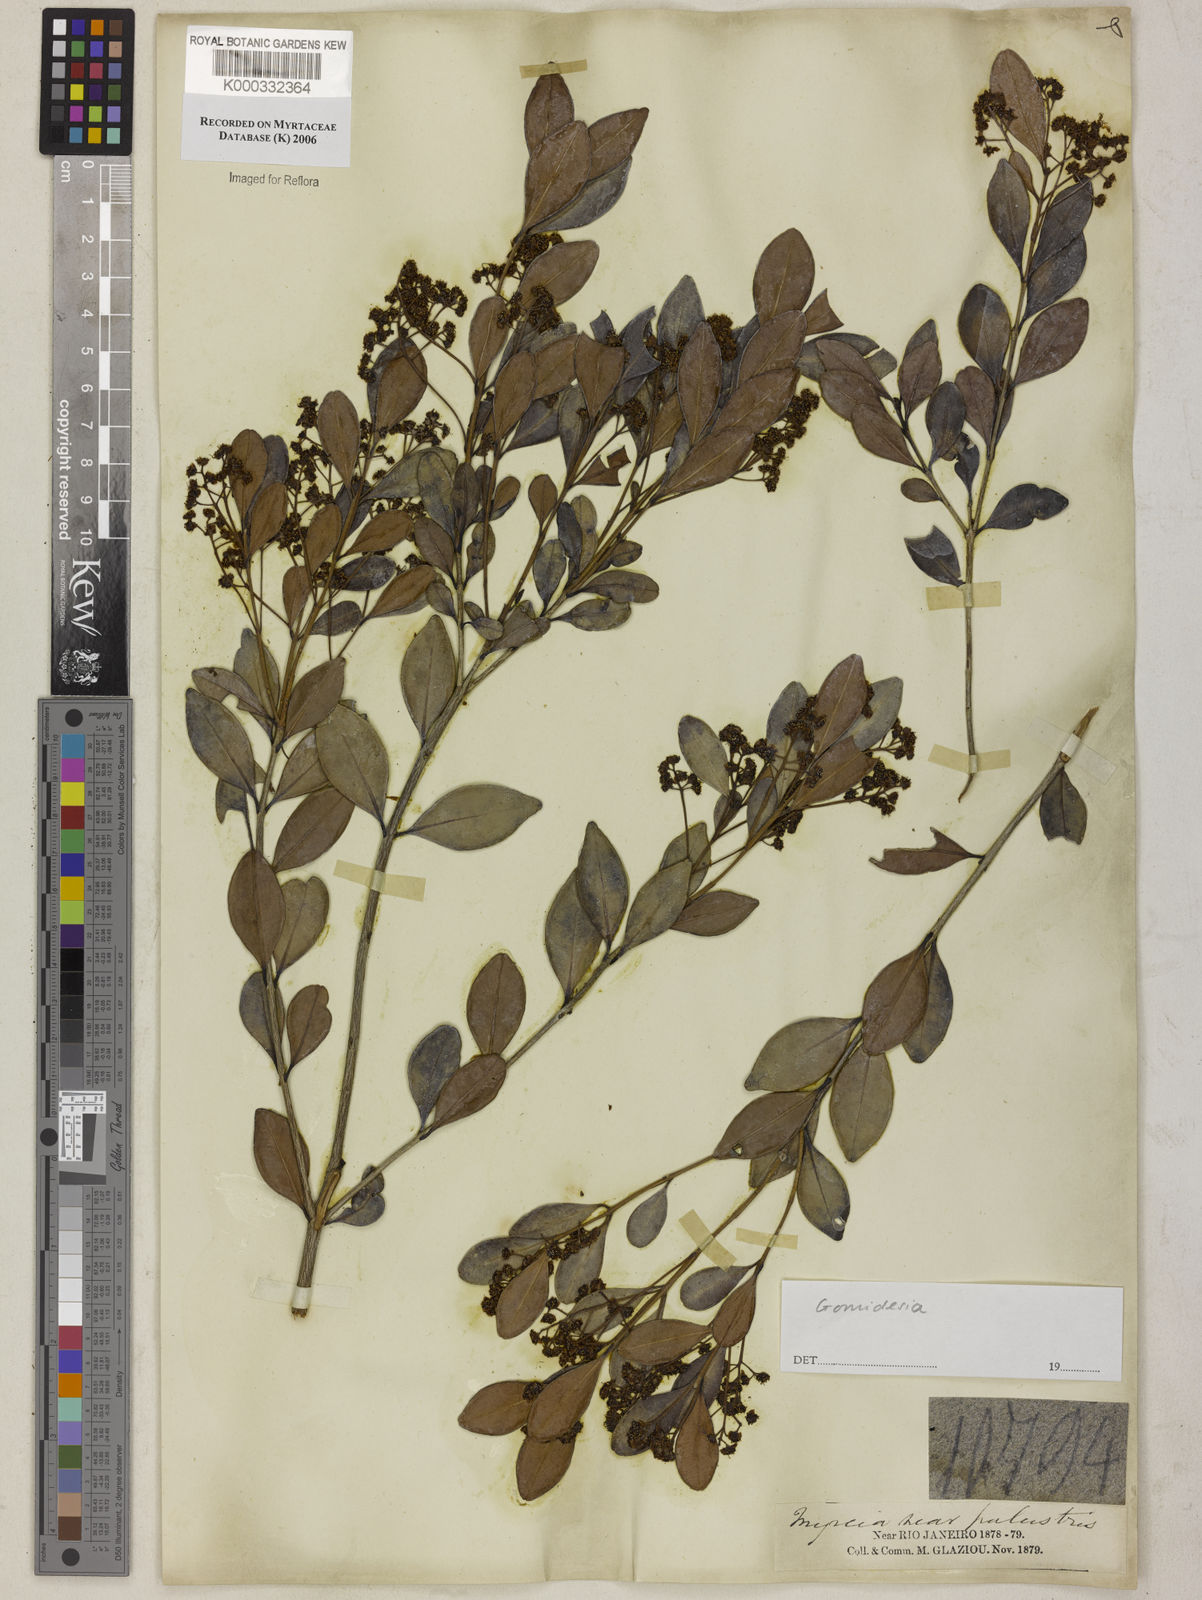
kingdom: Plantae
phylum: Tracheophyta
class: Magnoliopsida
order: Myrtales
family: Myrtaceae
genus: Myrcia
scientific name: Myrcia
